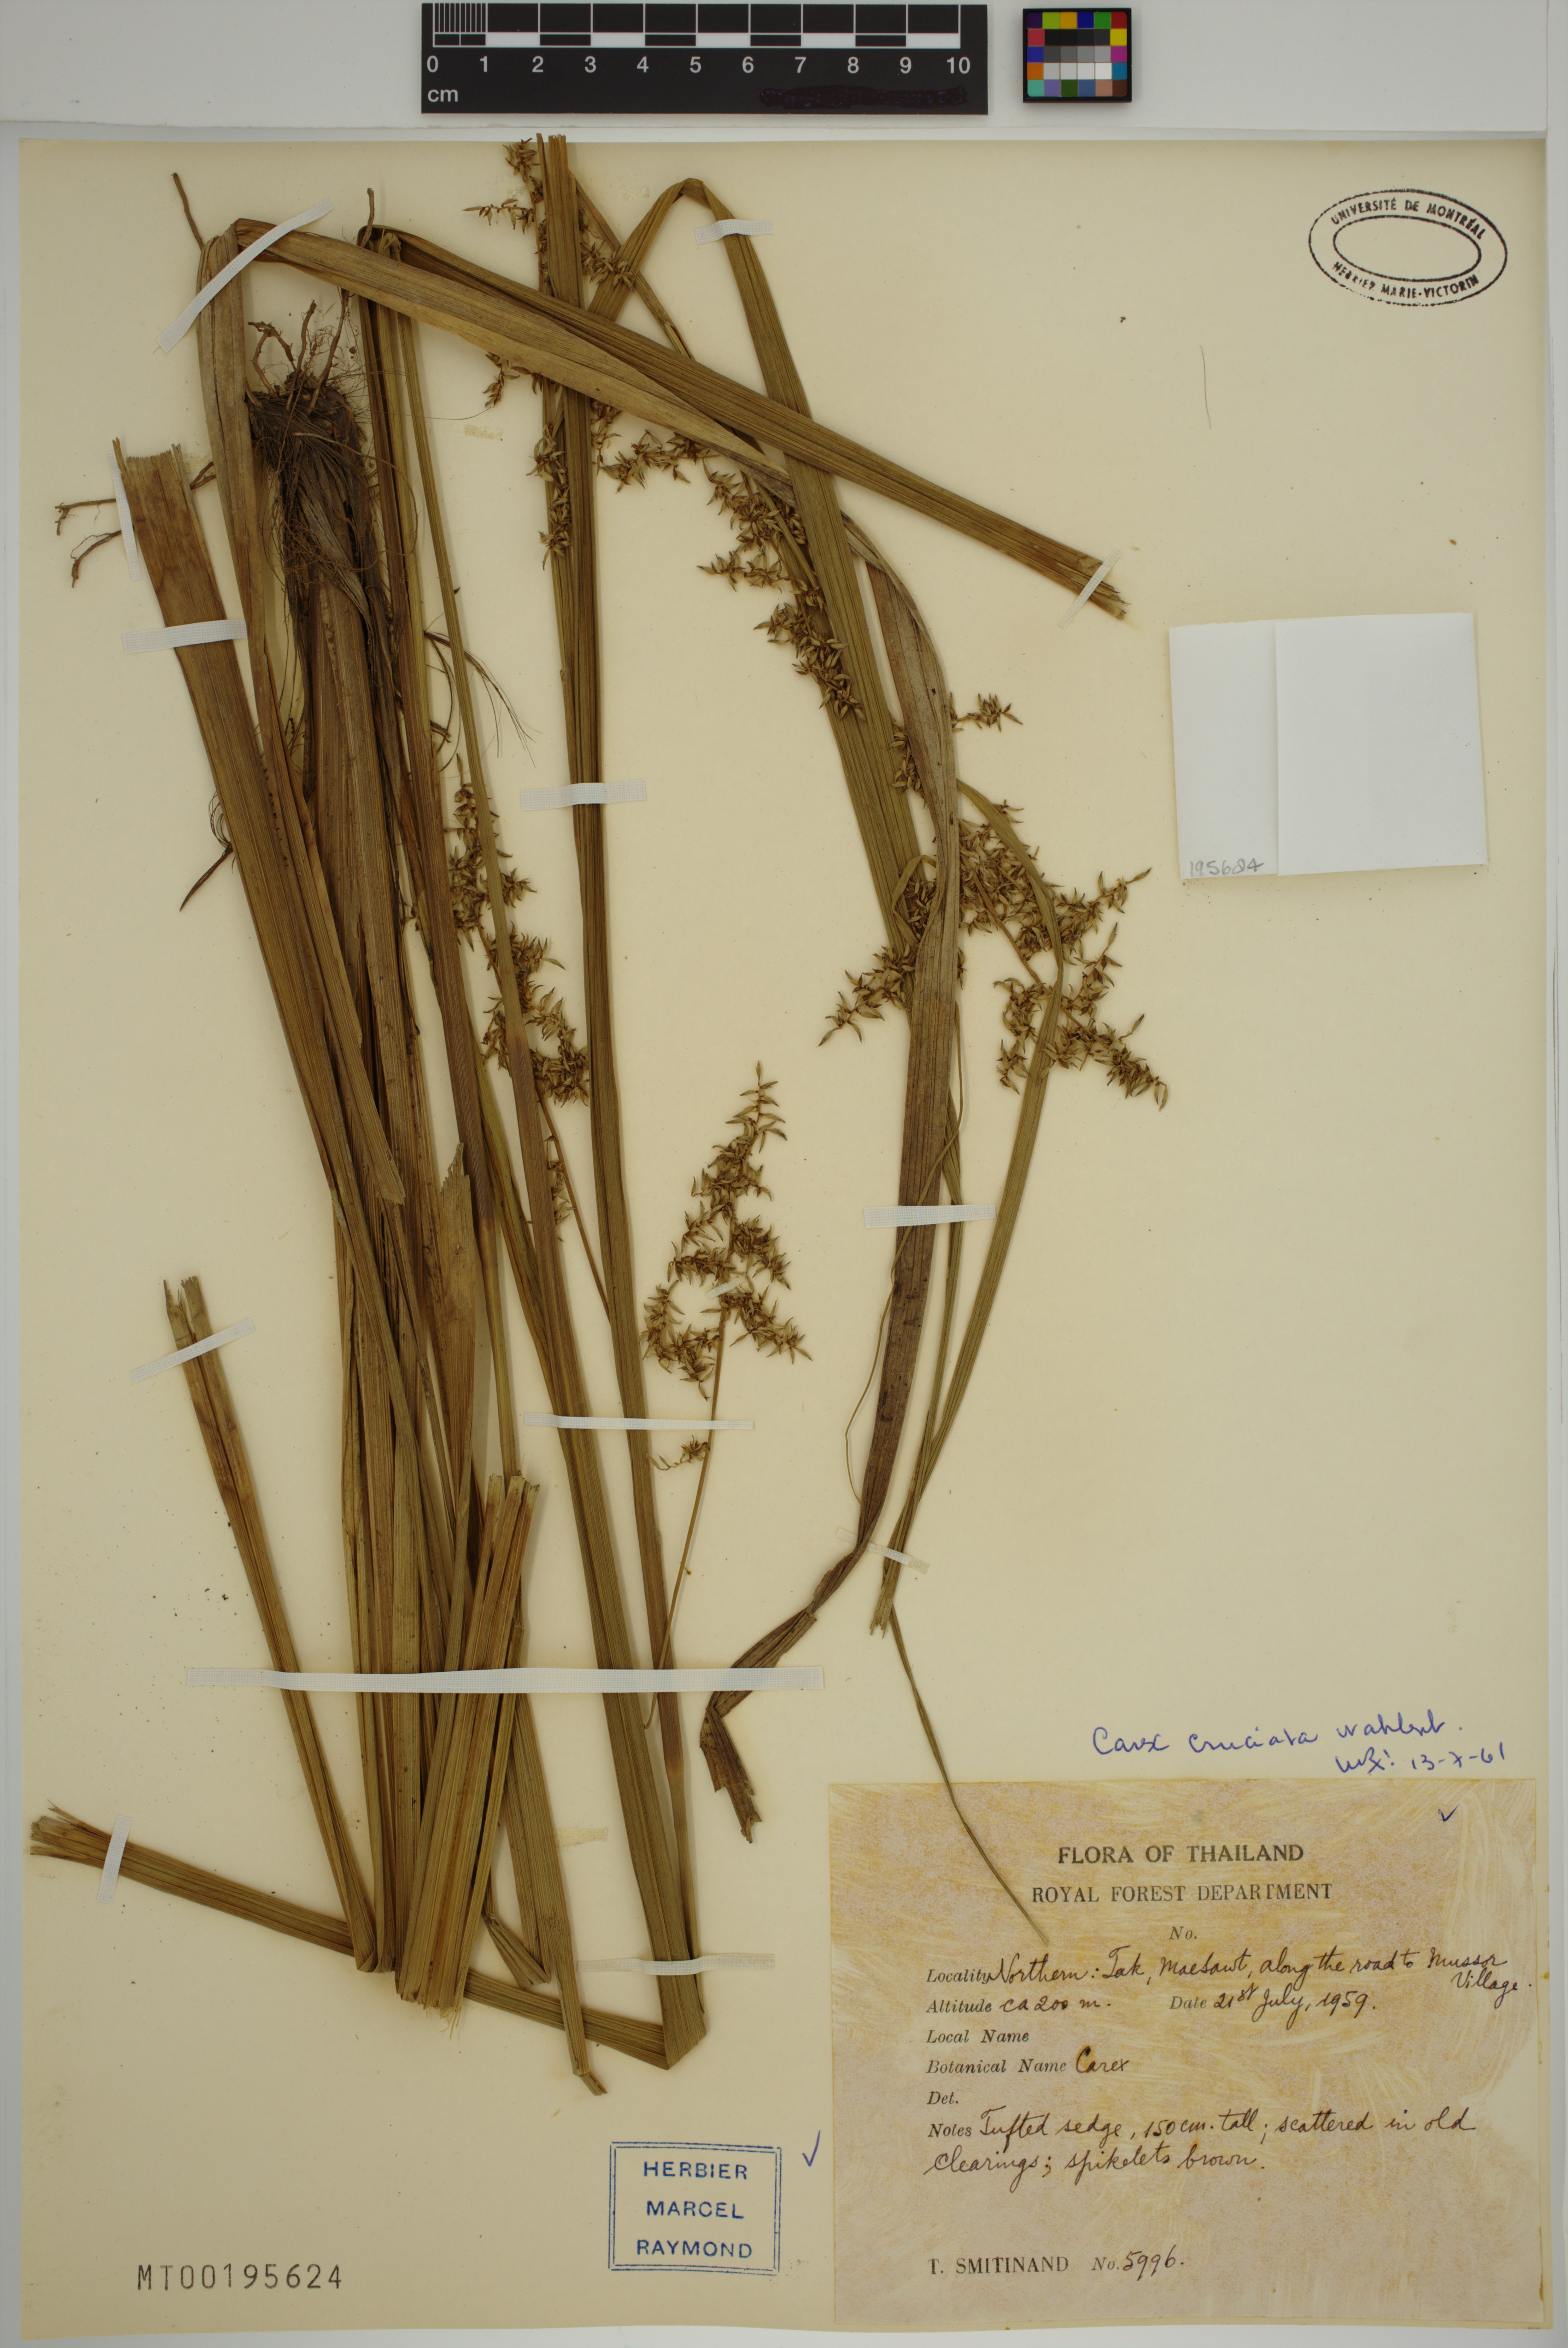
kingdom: Plantae
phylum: Tracheophyta
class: Liliopsida
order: Poales
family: Cyperaceae
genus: Carex
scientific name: Carex cruciata
